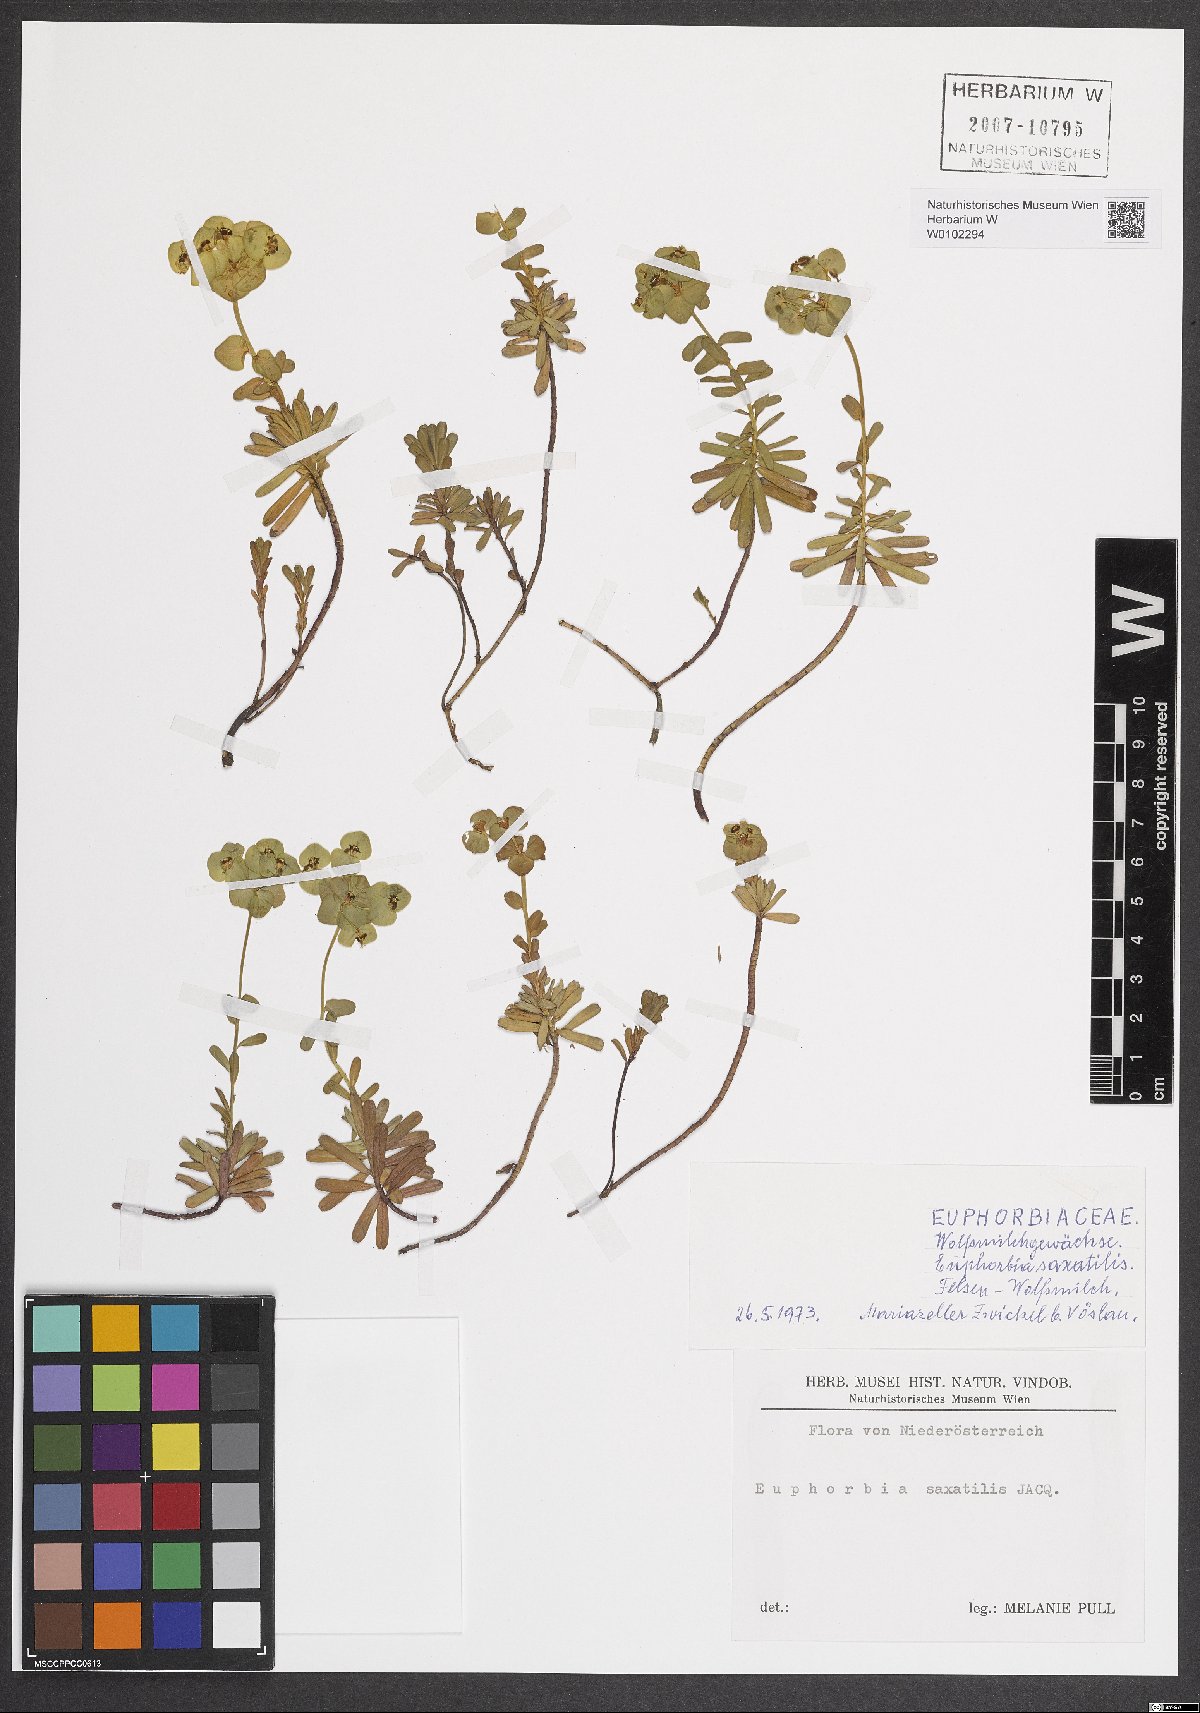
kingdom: Plantae
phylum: Tracheophyta
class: Magnoliopsida
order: Malpighiales
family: Euphorbiaceae
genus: Euphorbia
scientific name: Euphorbia saxatilis
